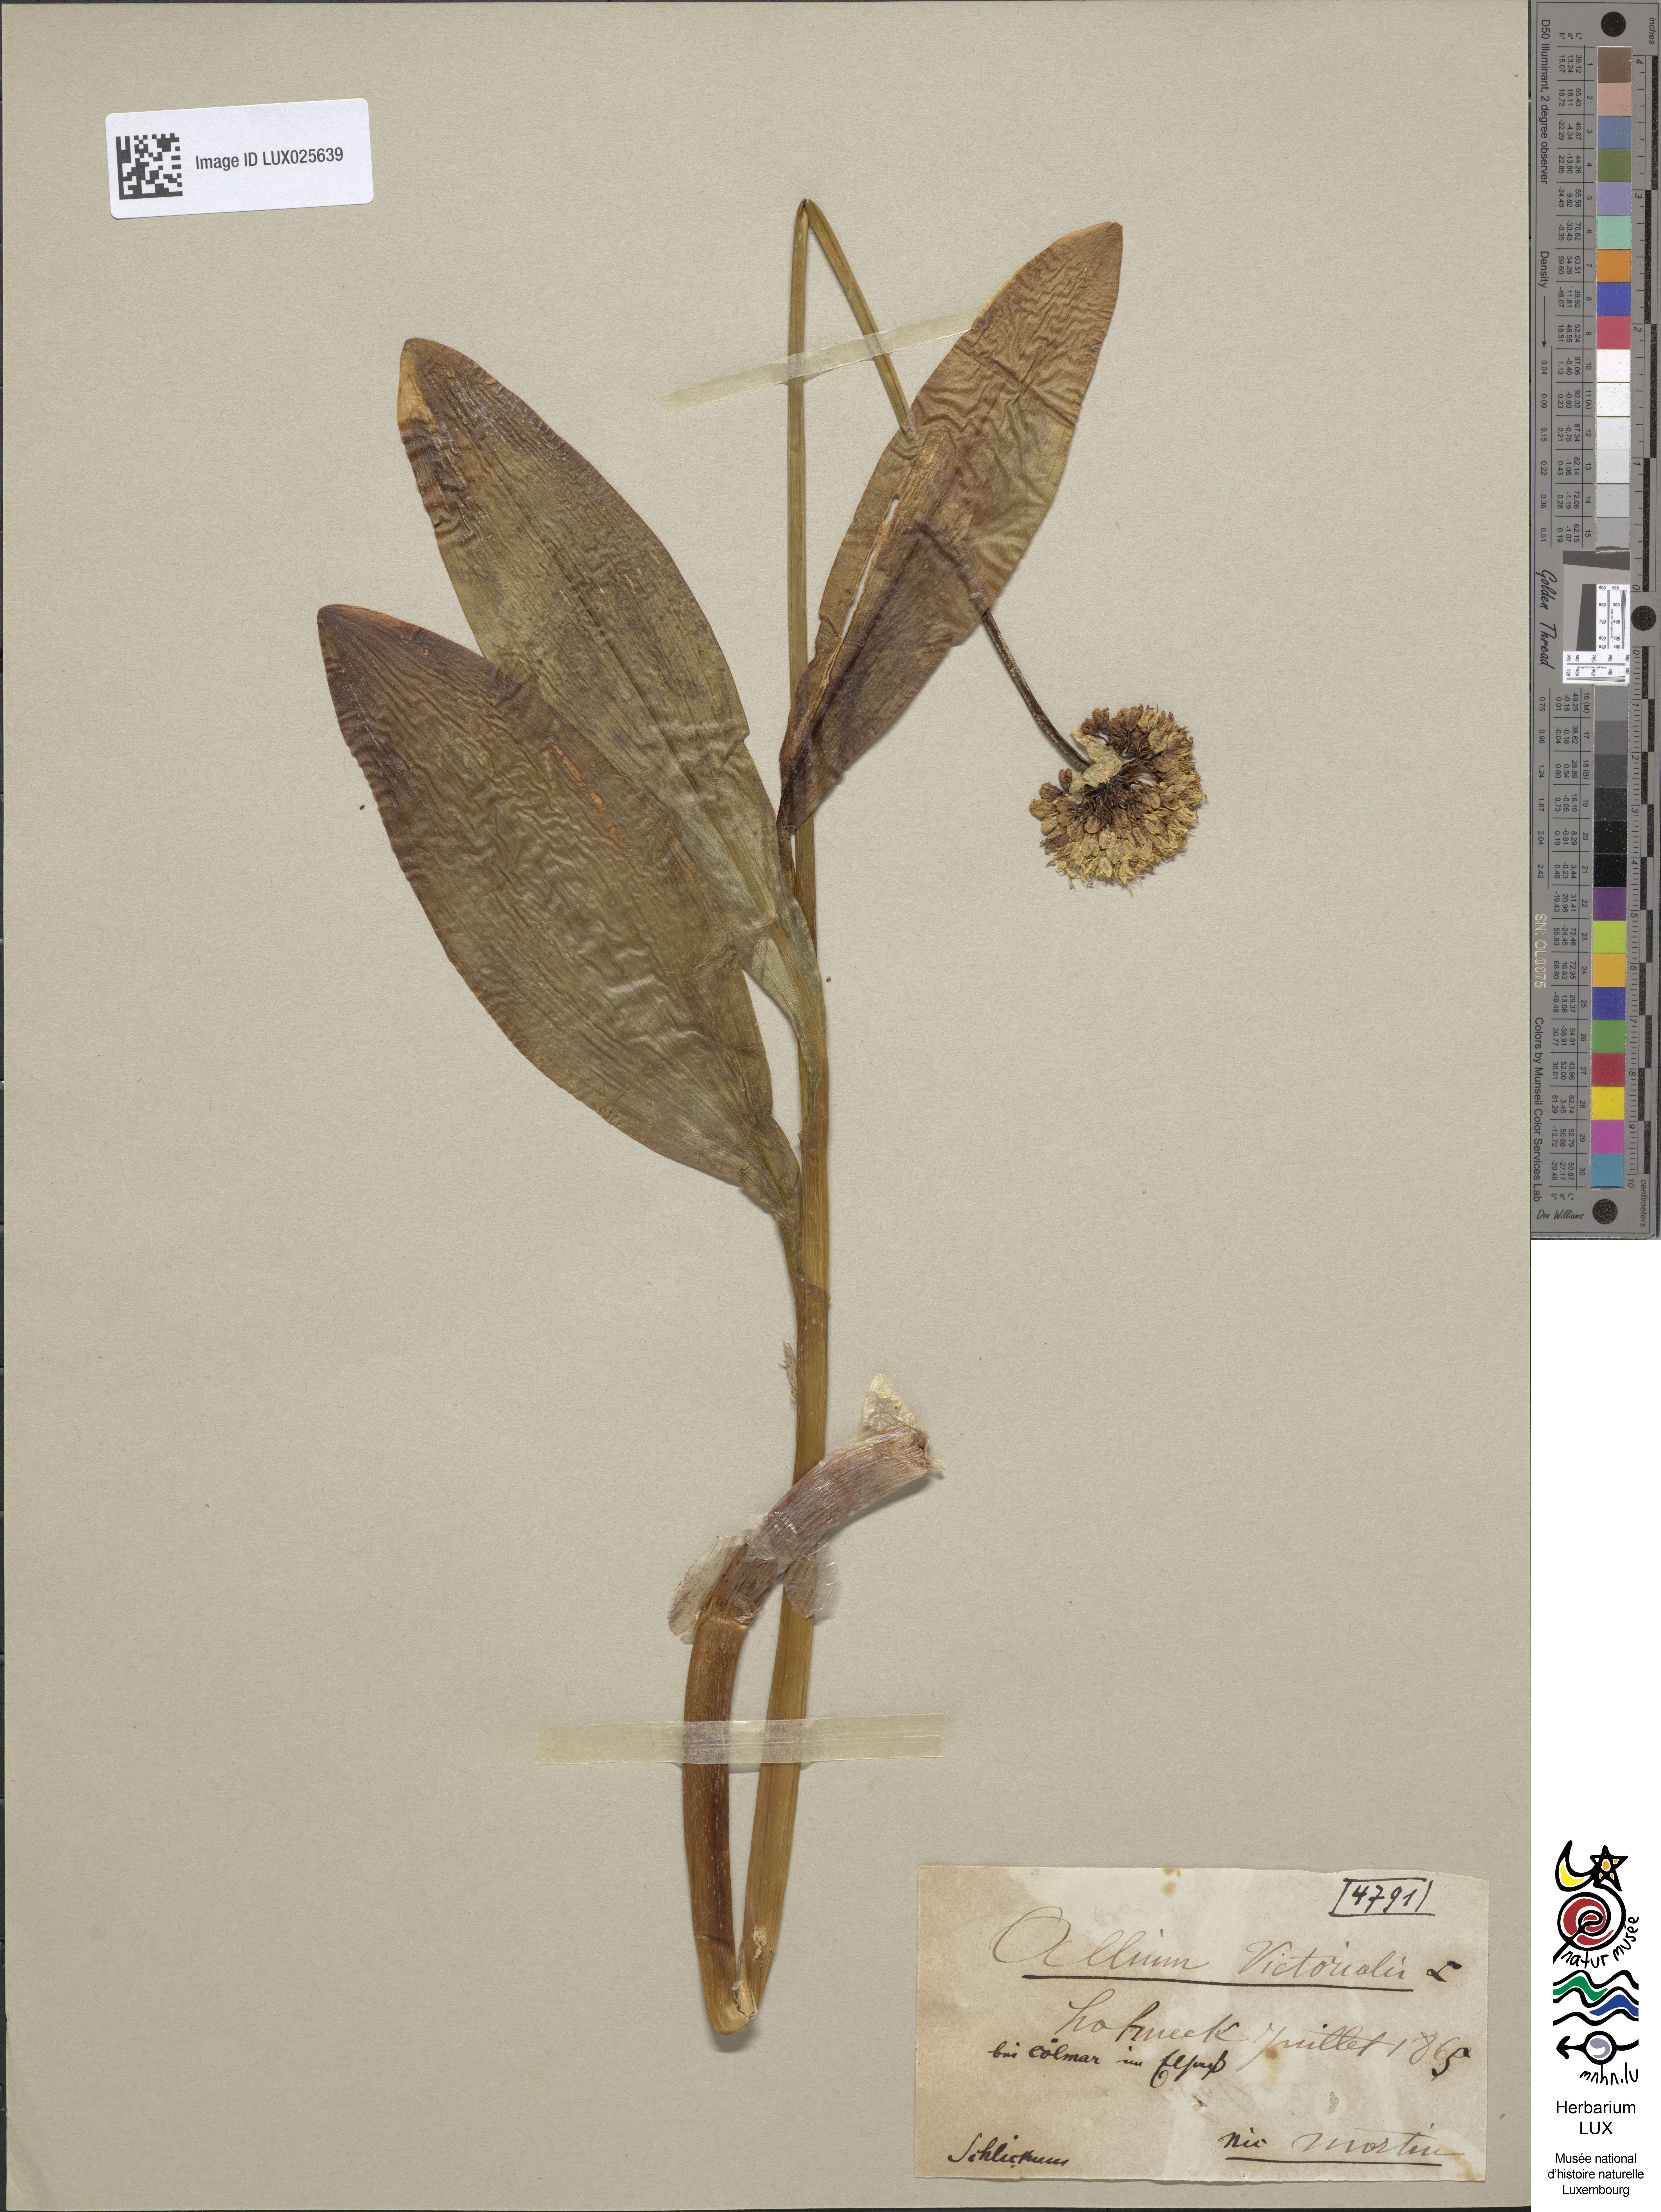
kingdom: Plantae
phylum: Tracheophyta
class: Liliopsida
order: Asparagales
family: Amaryllidaceae
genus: Allium
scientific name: Allium victorialis
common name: Alpine leek
